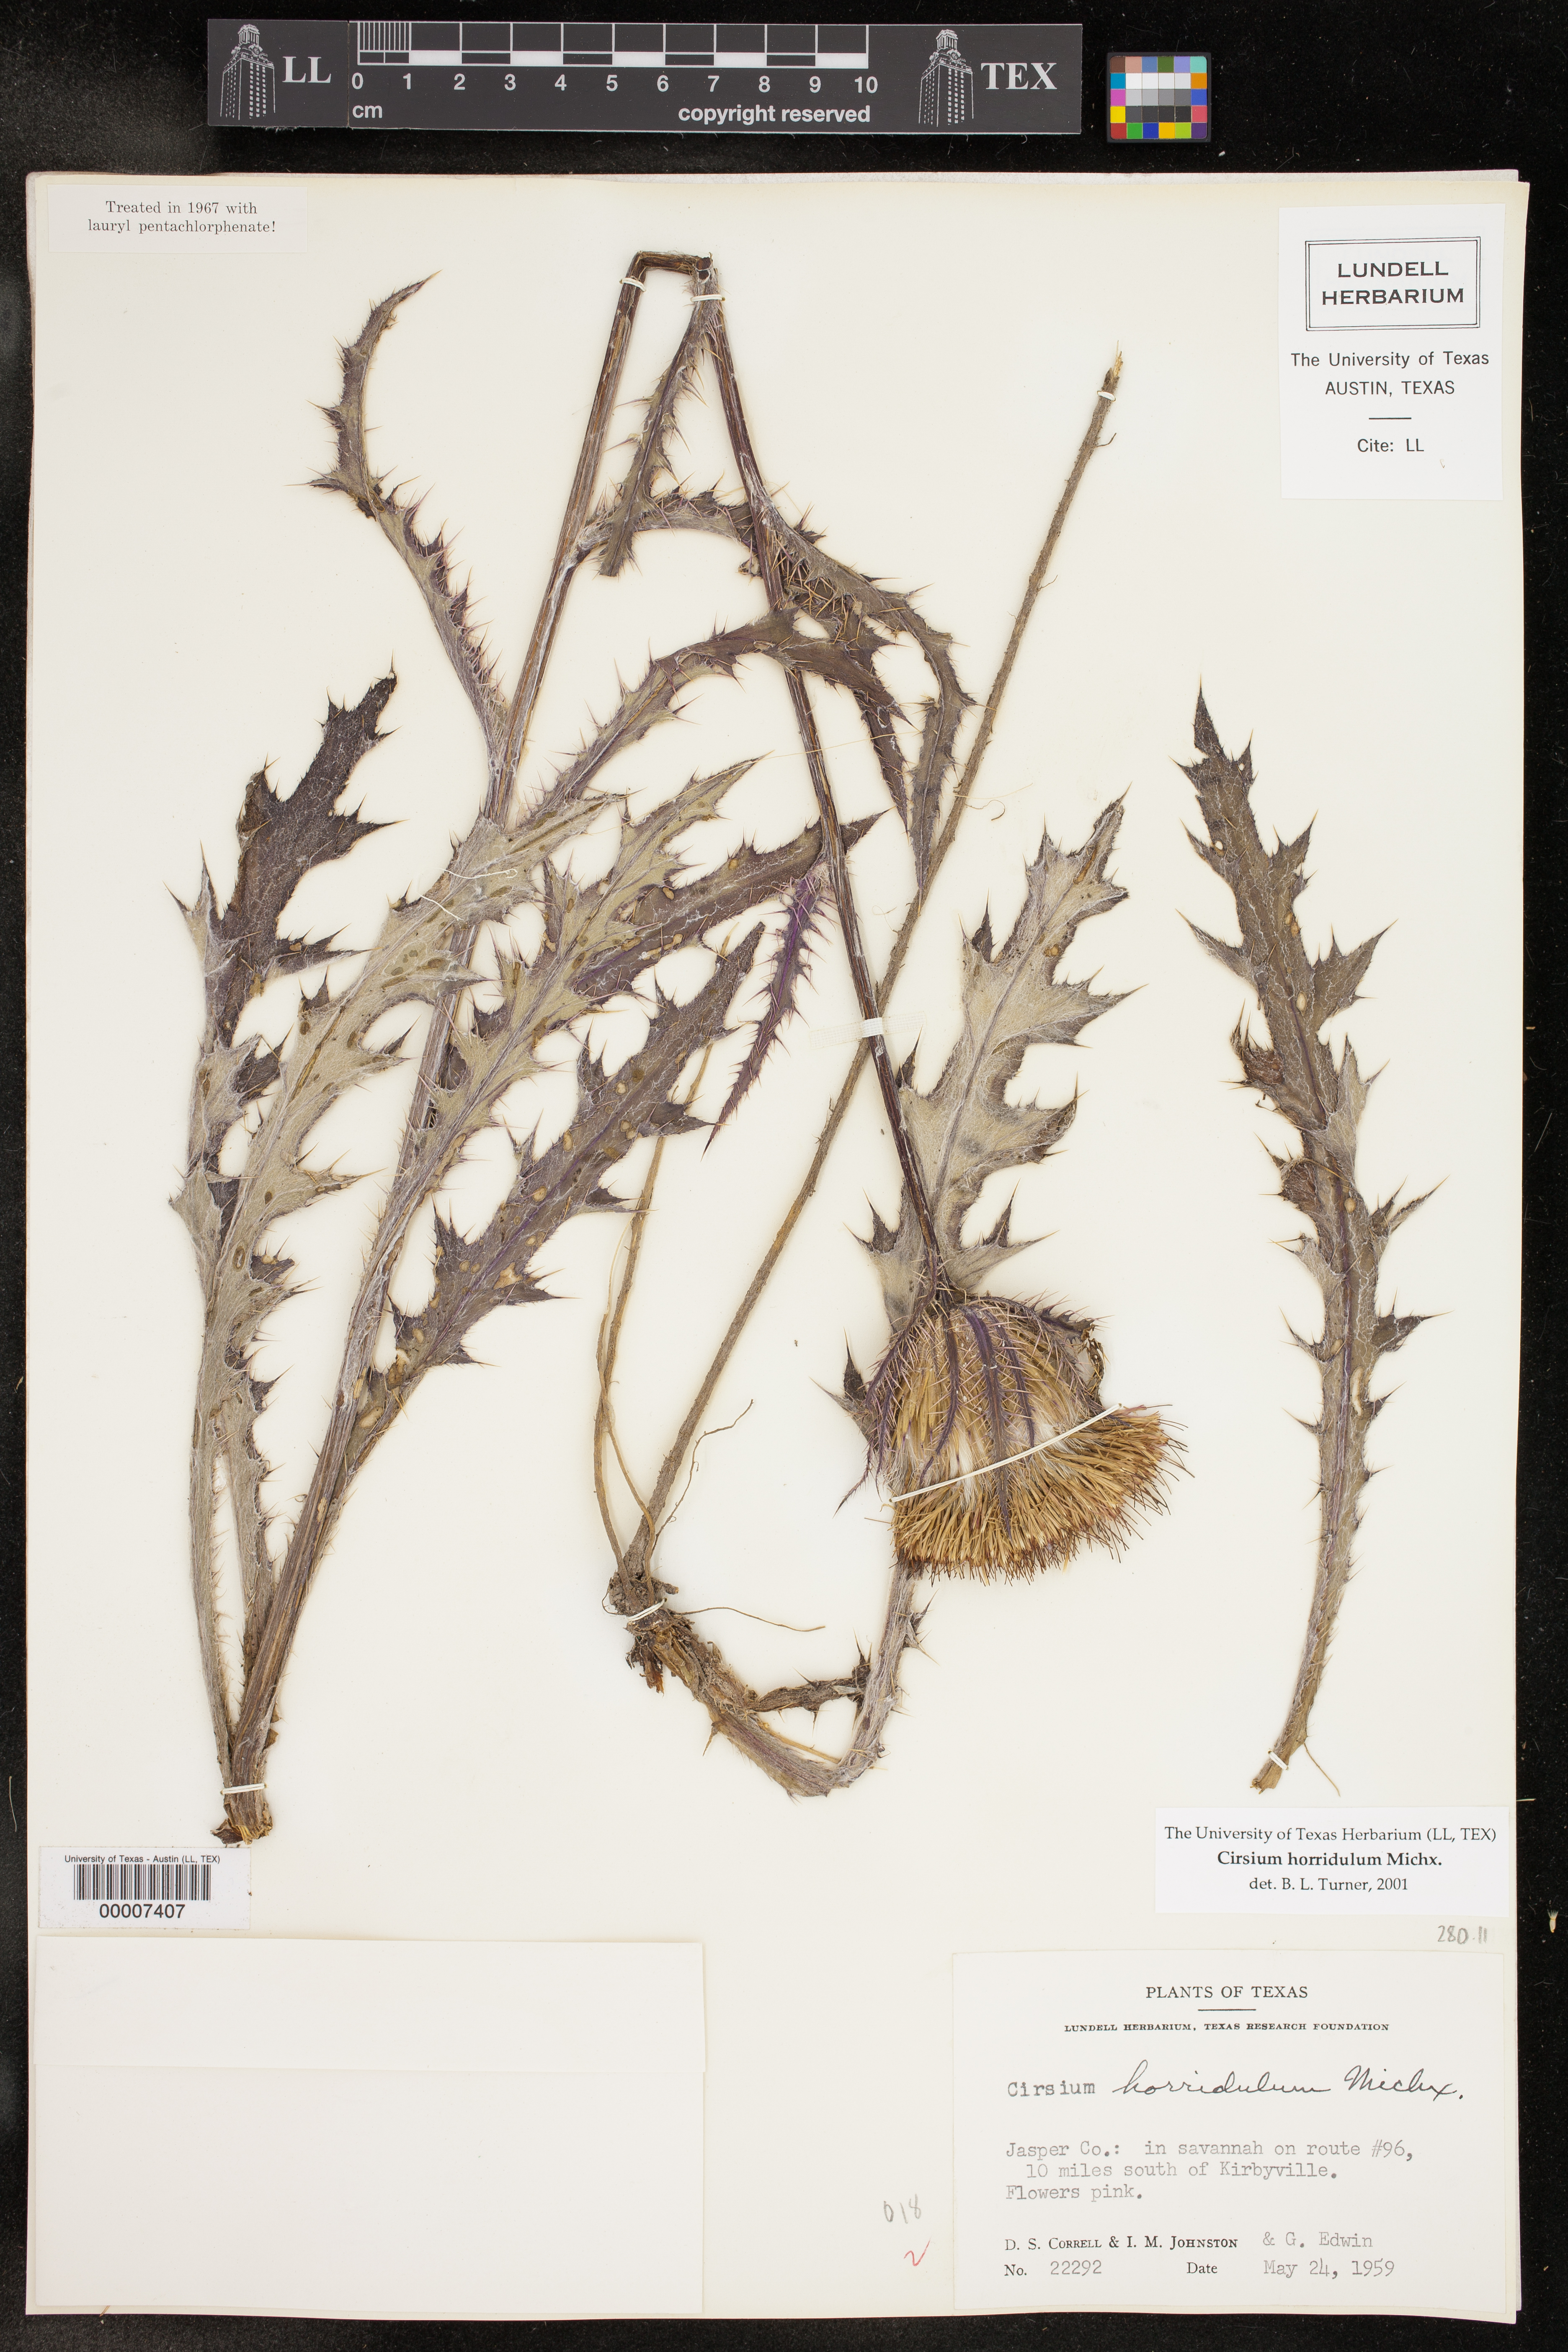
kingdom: Plantae
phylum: Tracheophyta
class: Magnoliopsida
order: Asterales
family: Asteraceae
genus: Cirsium
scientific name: Cirsium horridulum
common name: Bristly thistle
